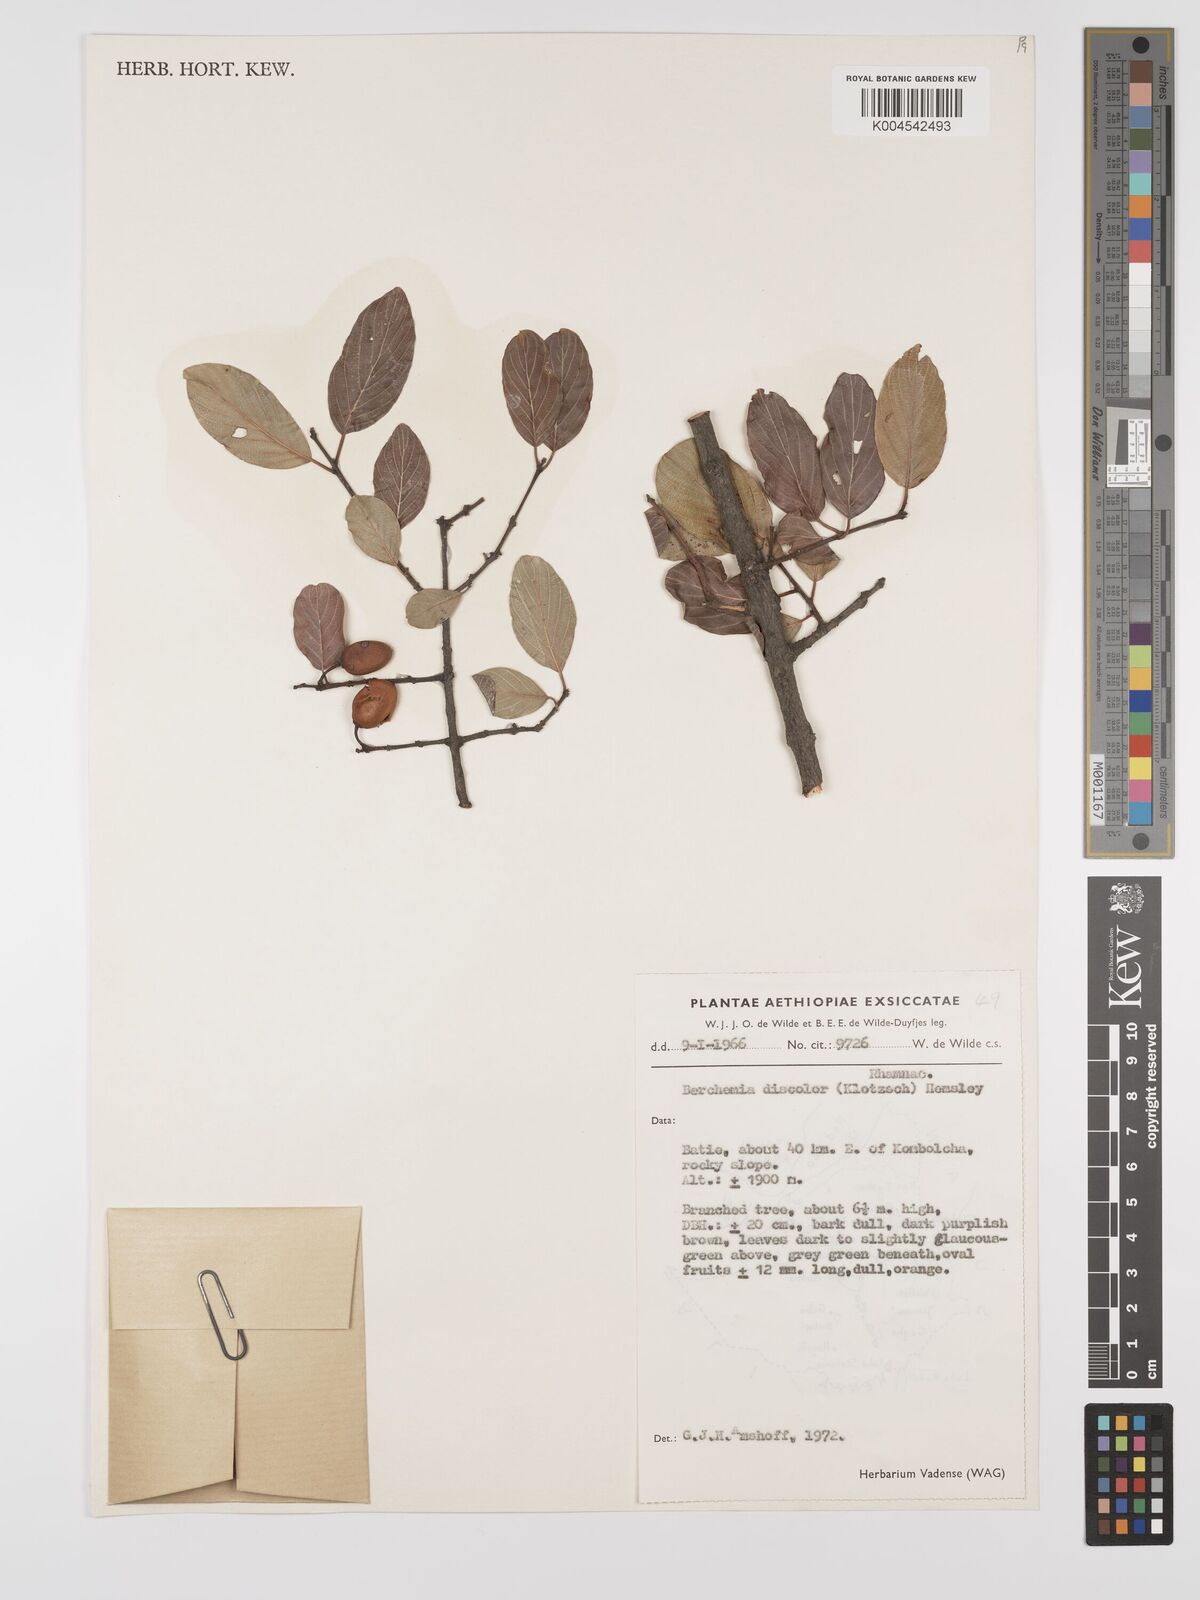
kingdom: Plantae
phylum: Tracheophyta
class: Magnoliopsida
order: Rosales
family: Rhamnaceae
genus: Phyllogeiton
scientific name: Phyllogeiton discolor
